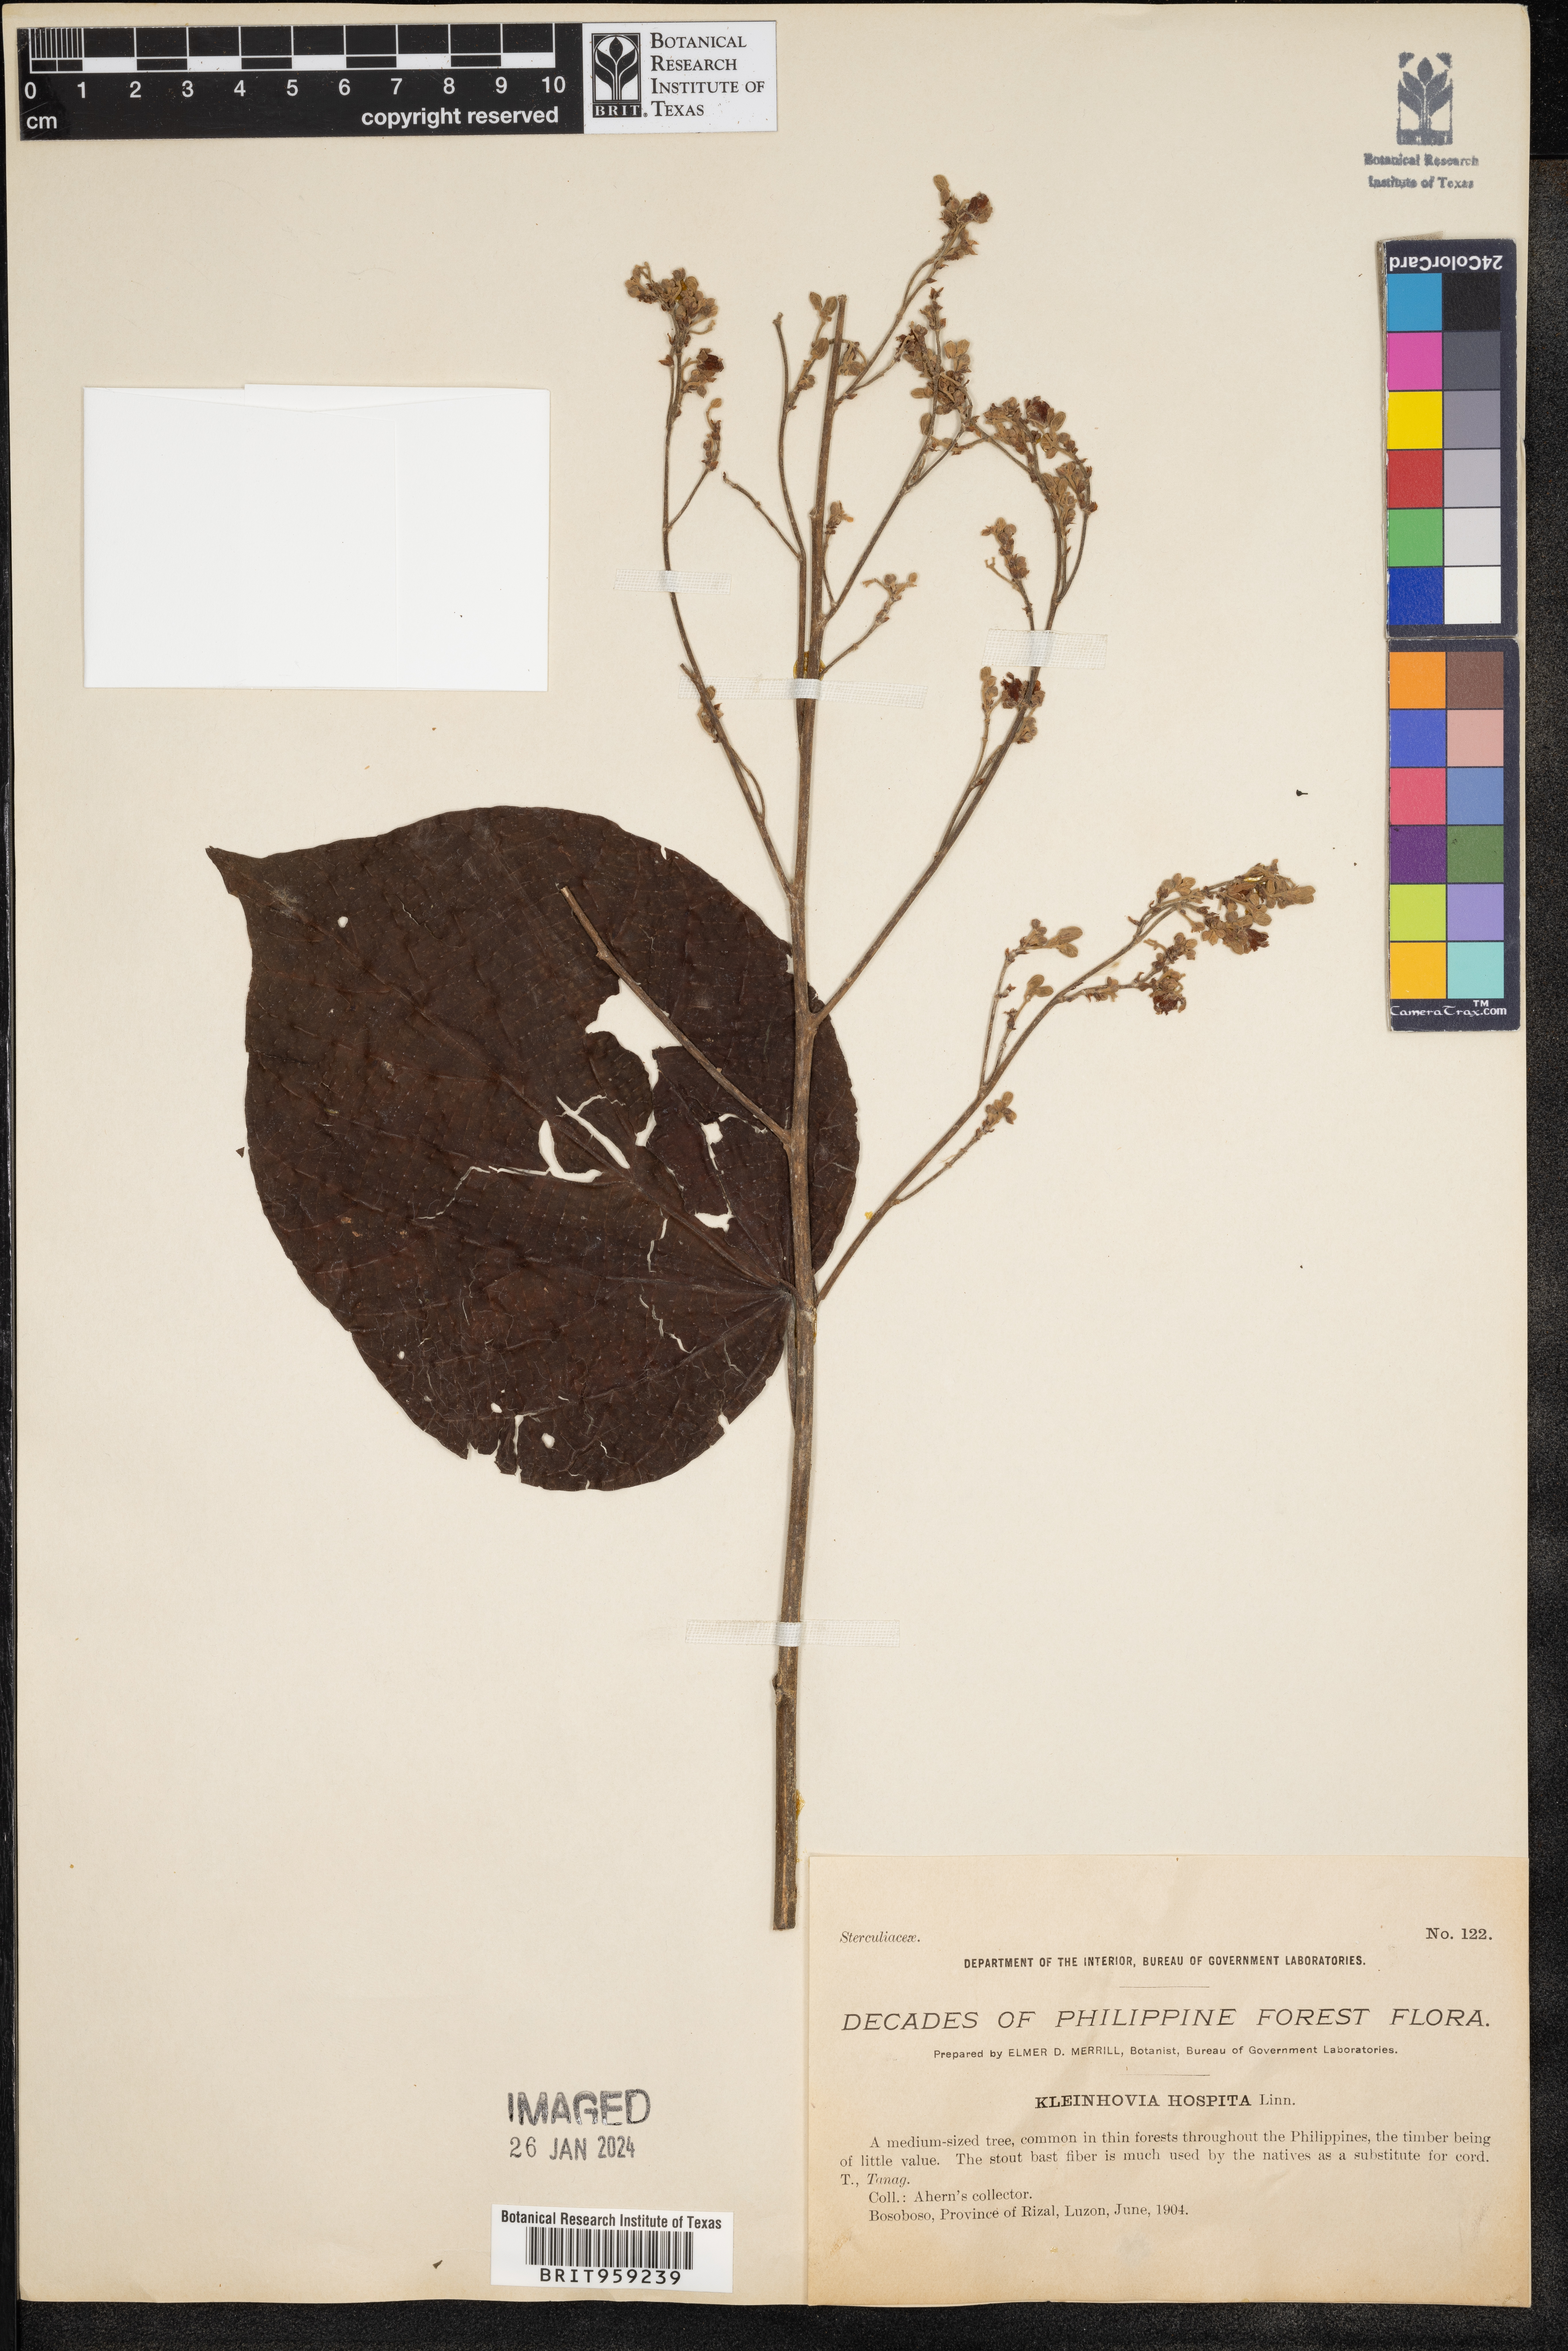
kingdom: Plantae
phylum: Tracheophyta
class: Magnoliopsida
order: Malvales
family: Malvaceae
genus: Kleinhovia
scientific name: Kleinhovia hospita
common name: Guest-tree
